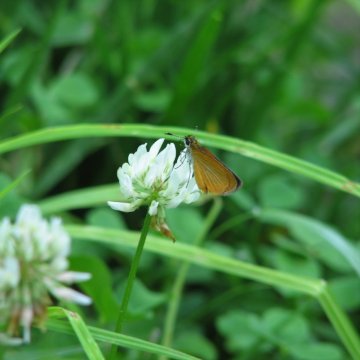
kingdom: Animalia
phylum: Arthropoda
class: Insecta
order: Lepidoptera
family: Hesperiidae
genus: Ancyloxypha
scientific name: Ancyloxypha numitor
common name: Least Skipper
